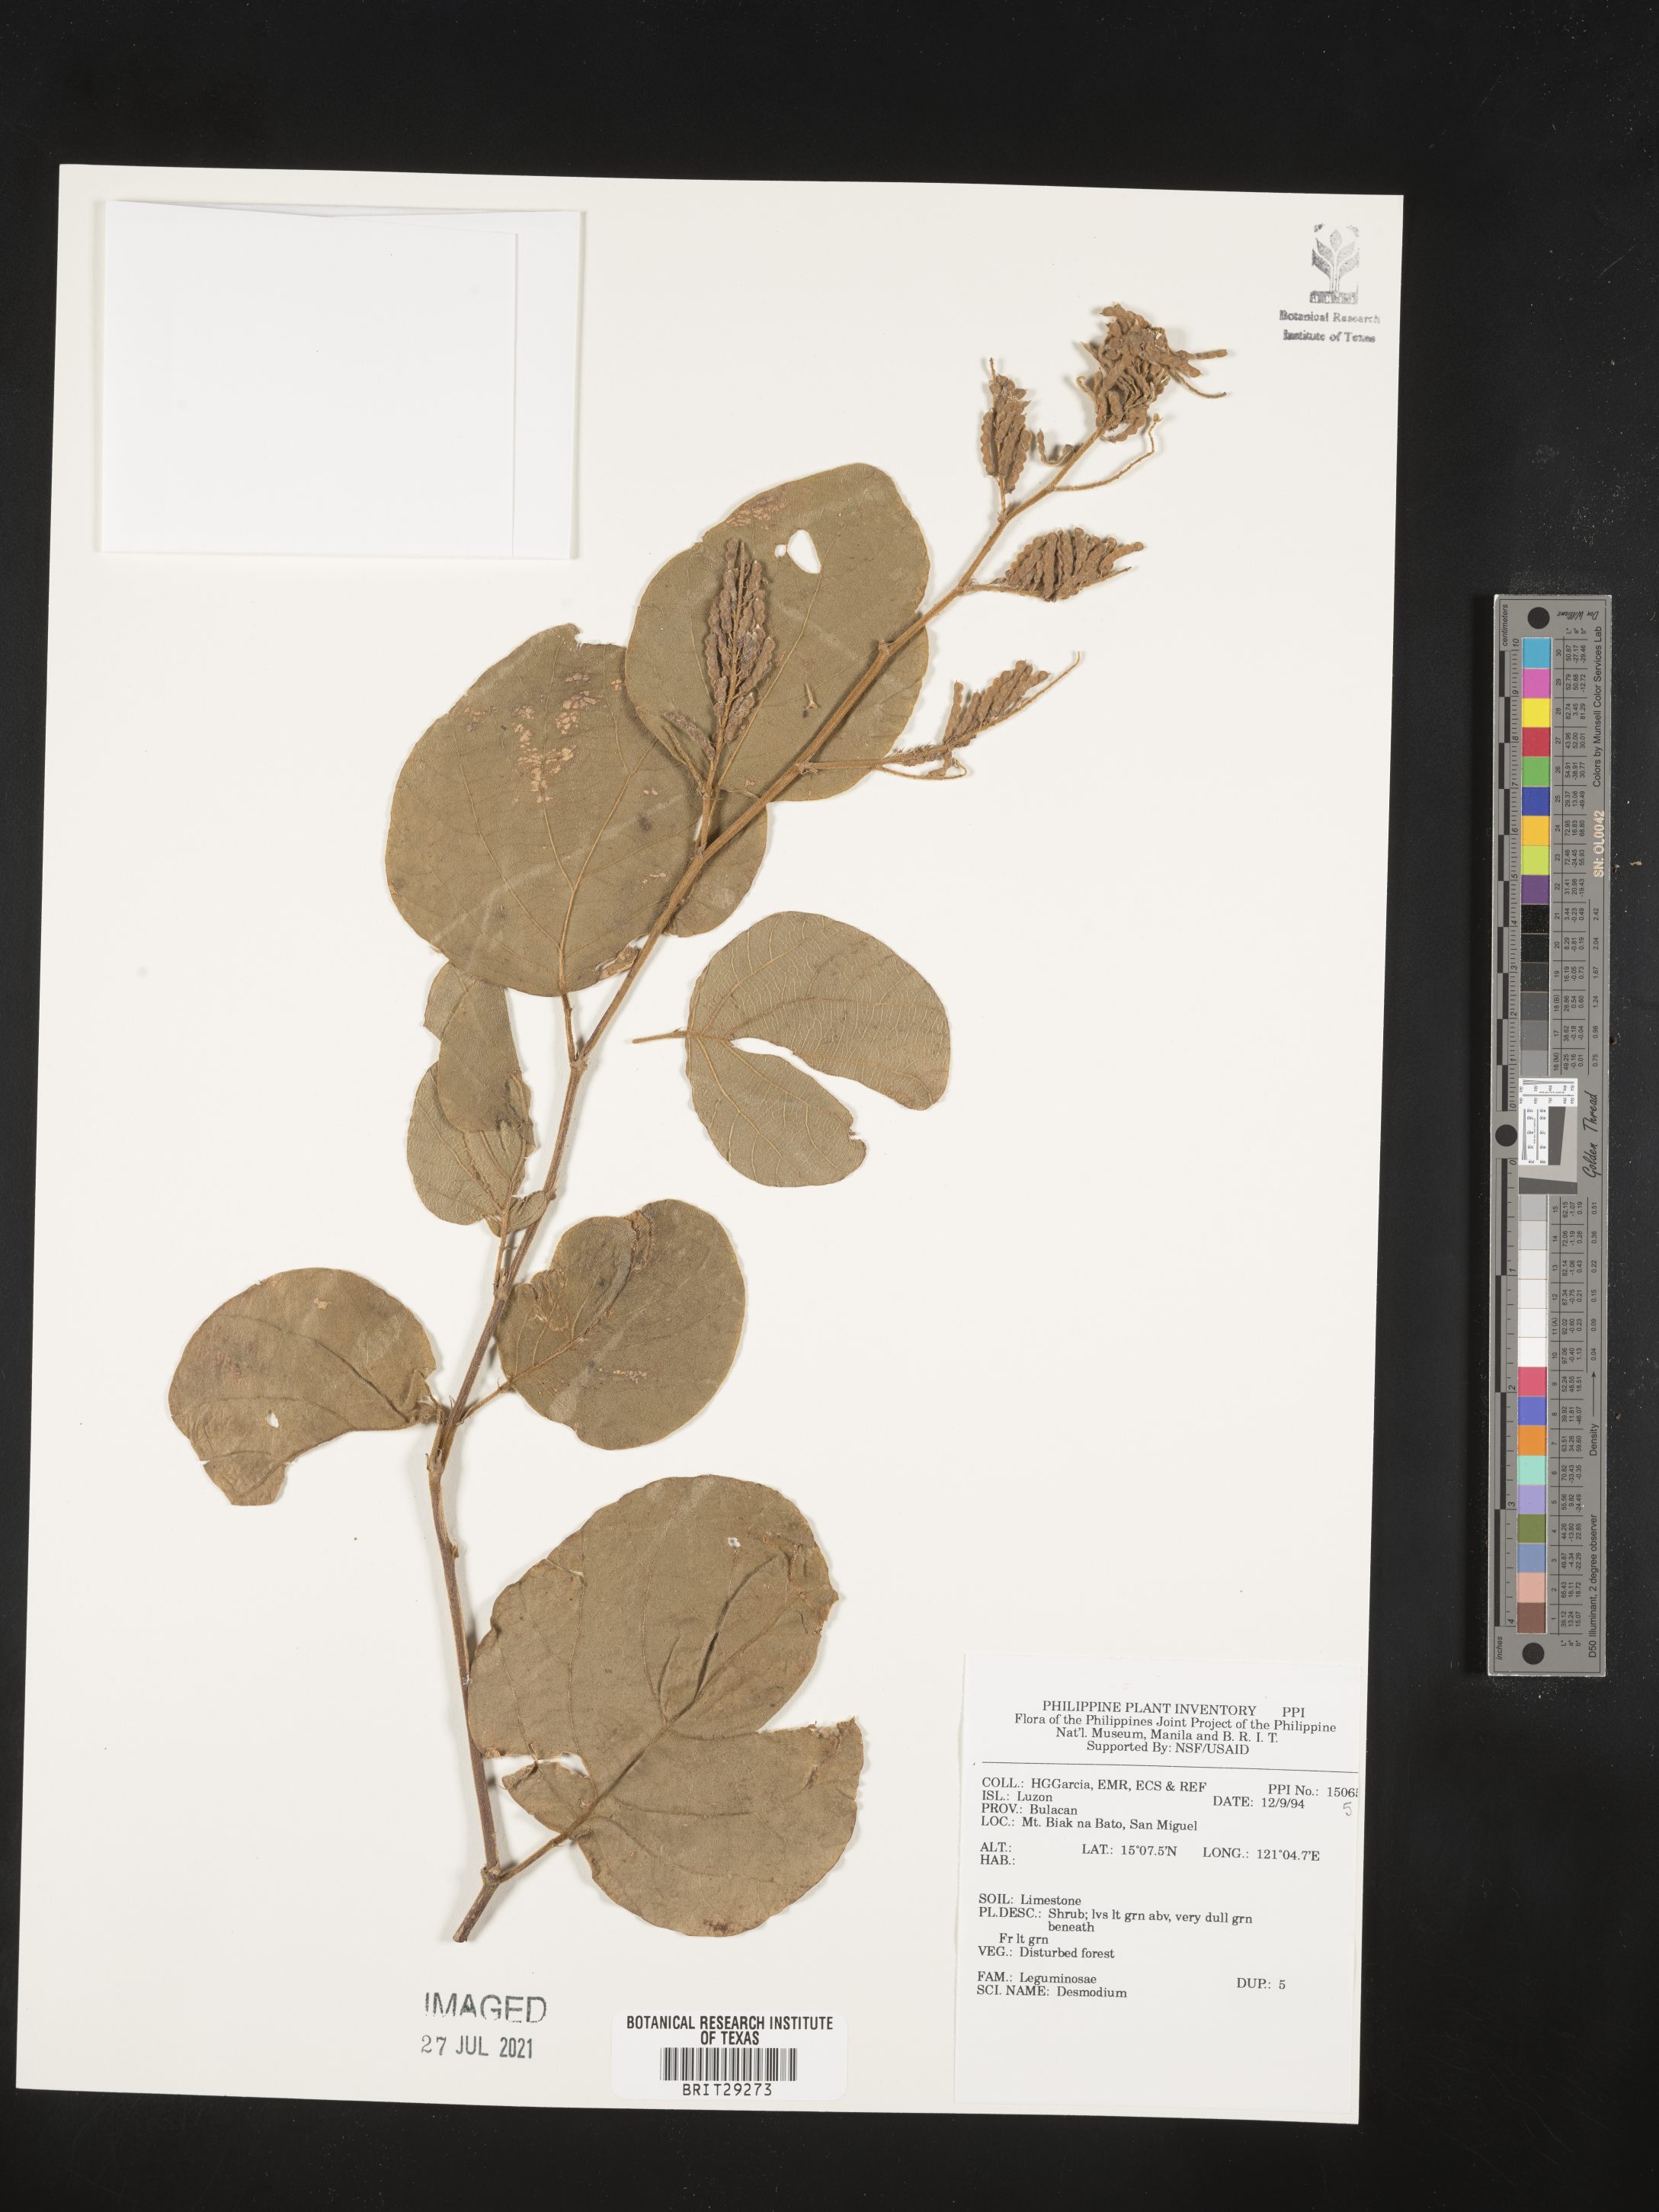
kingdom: Plantae
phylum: Tracheophyta
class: Magnoliopsida
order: Fabales
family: Fabaceae
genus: Desmodium
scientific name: Desmodium
